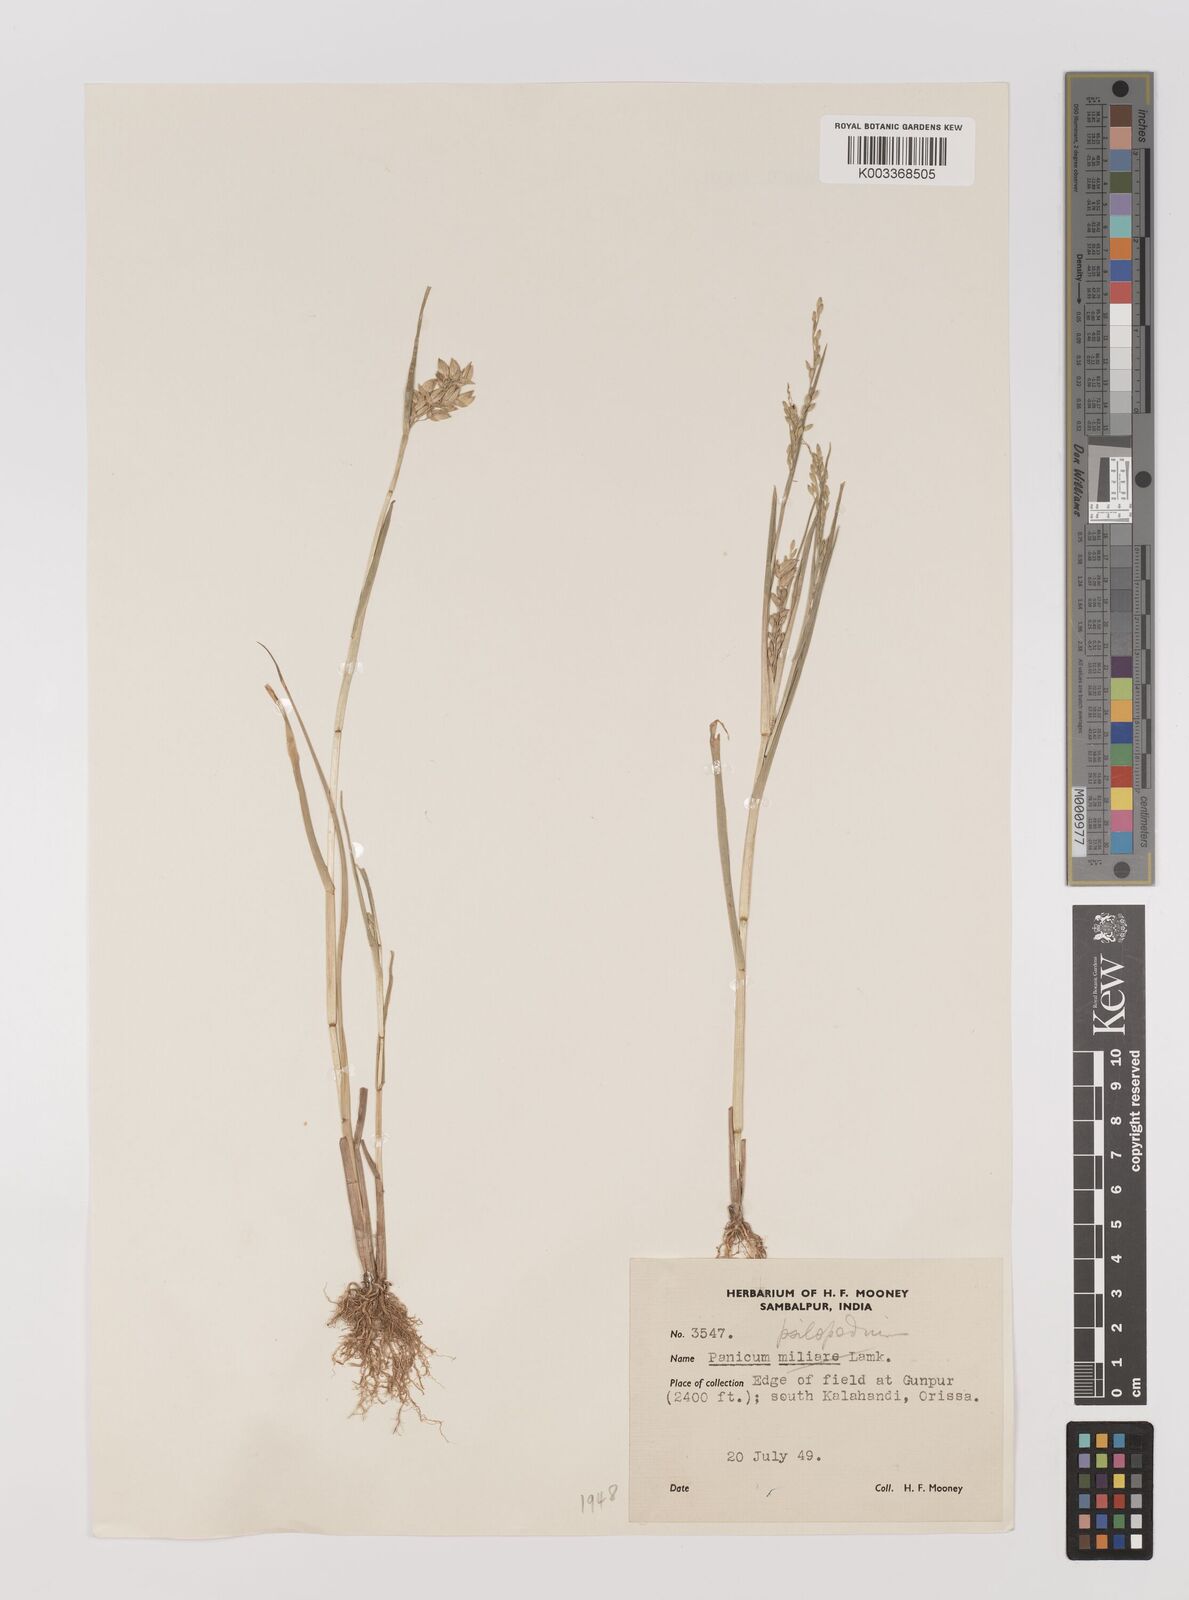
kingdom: Plantae
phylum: Tracheophyta
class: Liliopsida
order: Poales
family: Poaceae
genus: Panicum
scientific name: Panicum sumatrense
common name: Little millet
